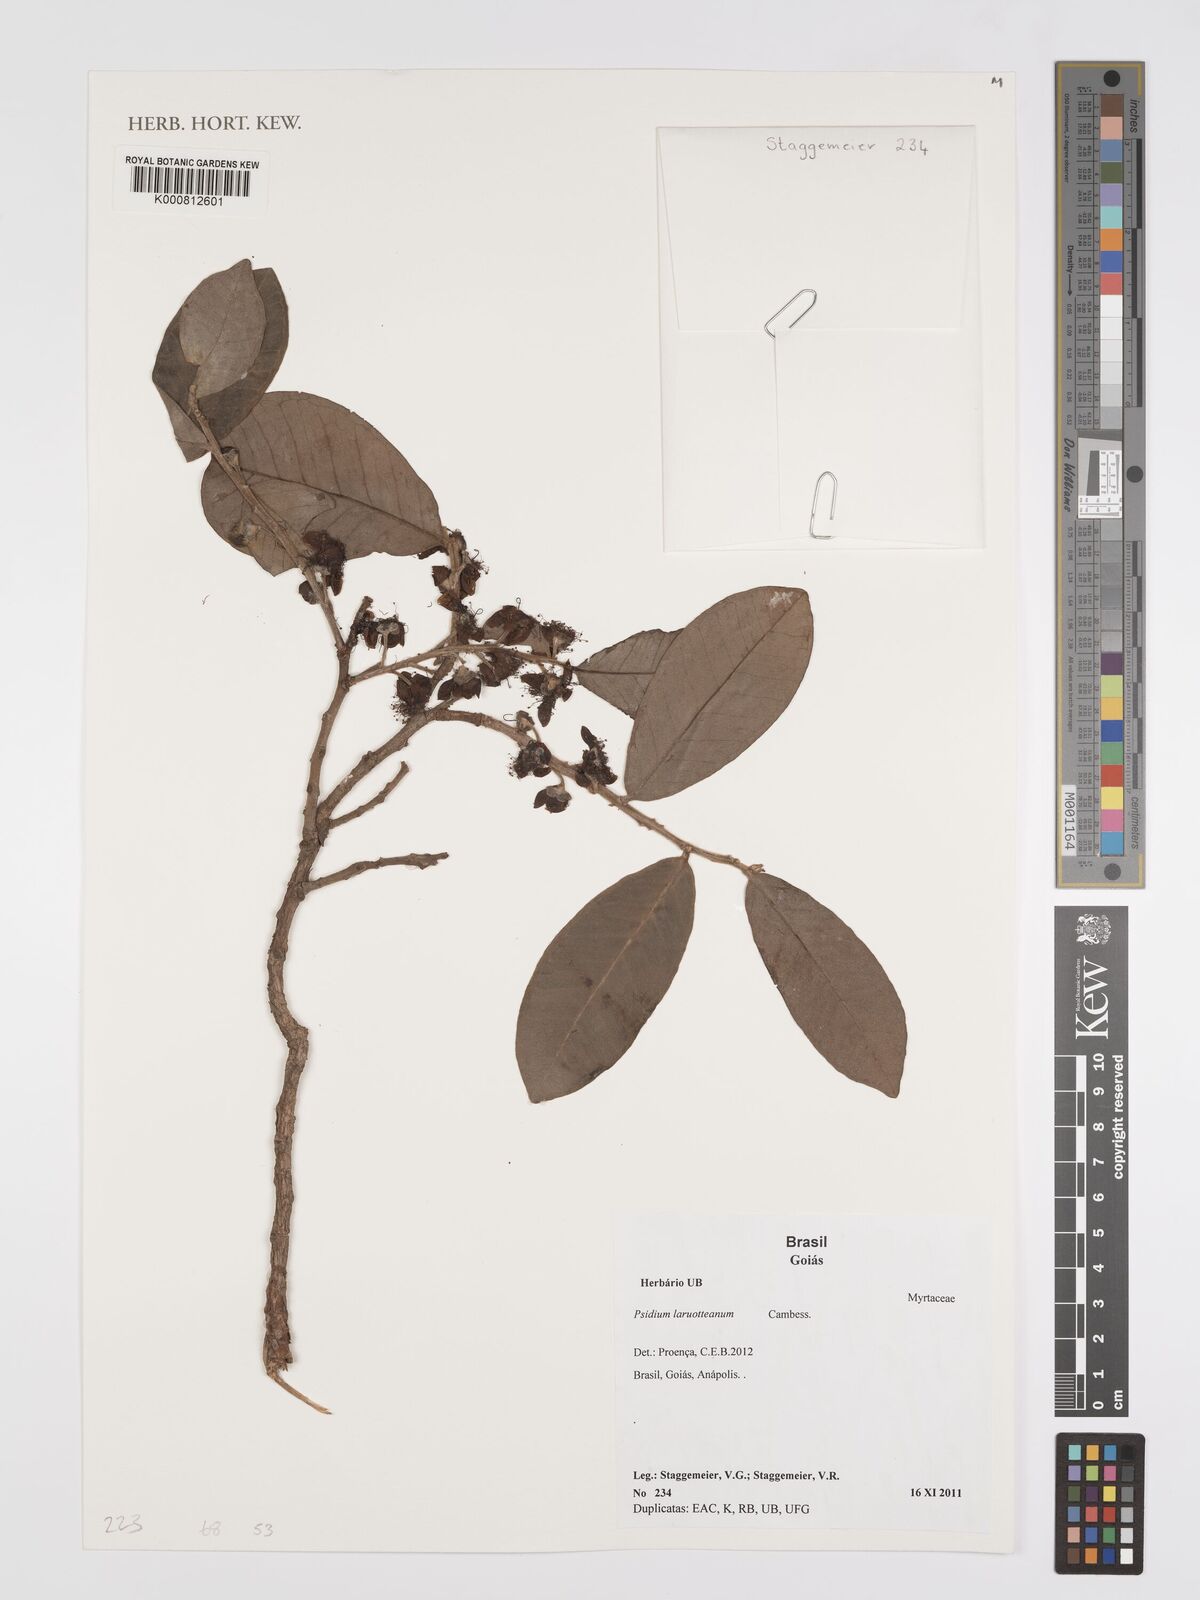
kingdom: Plantae
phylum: Tracheophyta
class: Magnoliopsida
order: Myrtales
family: Myrtaceae
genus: Psidium
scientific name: Psidium larueotteanum
